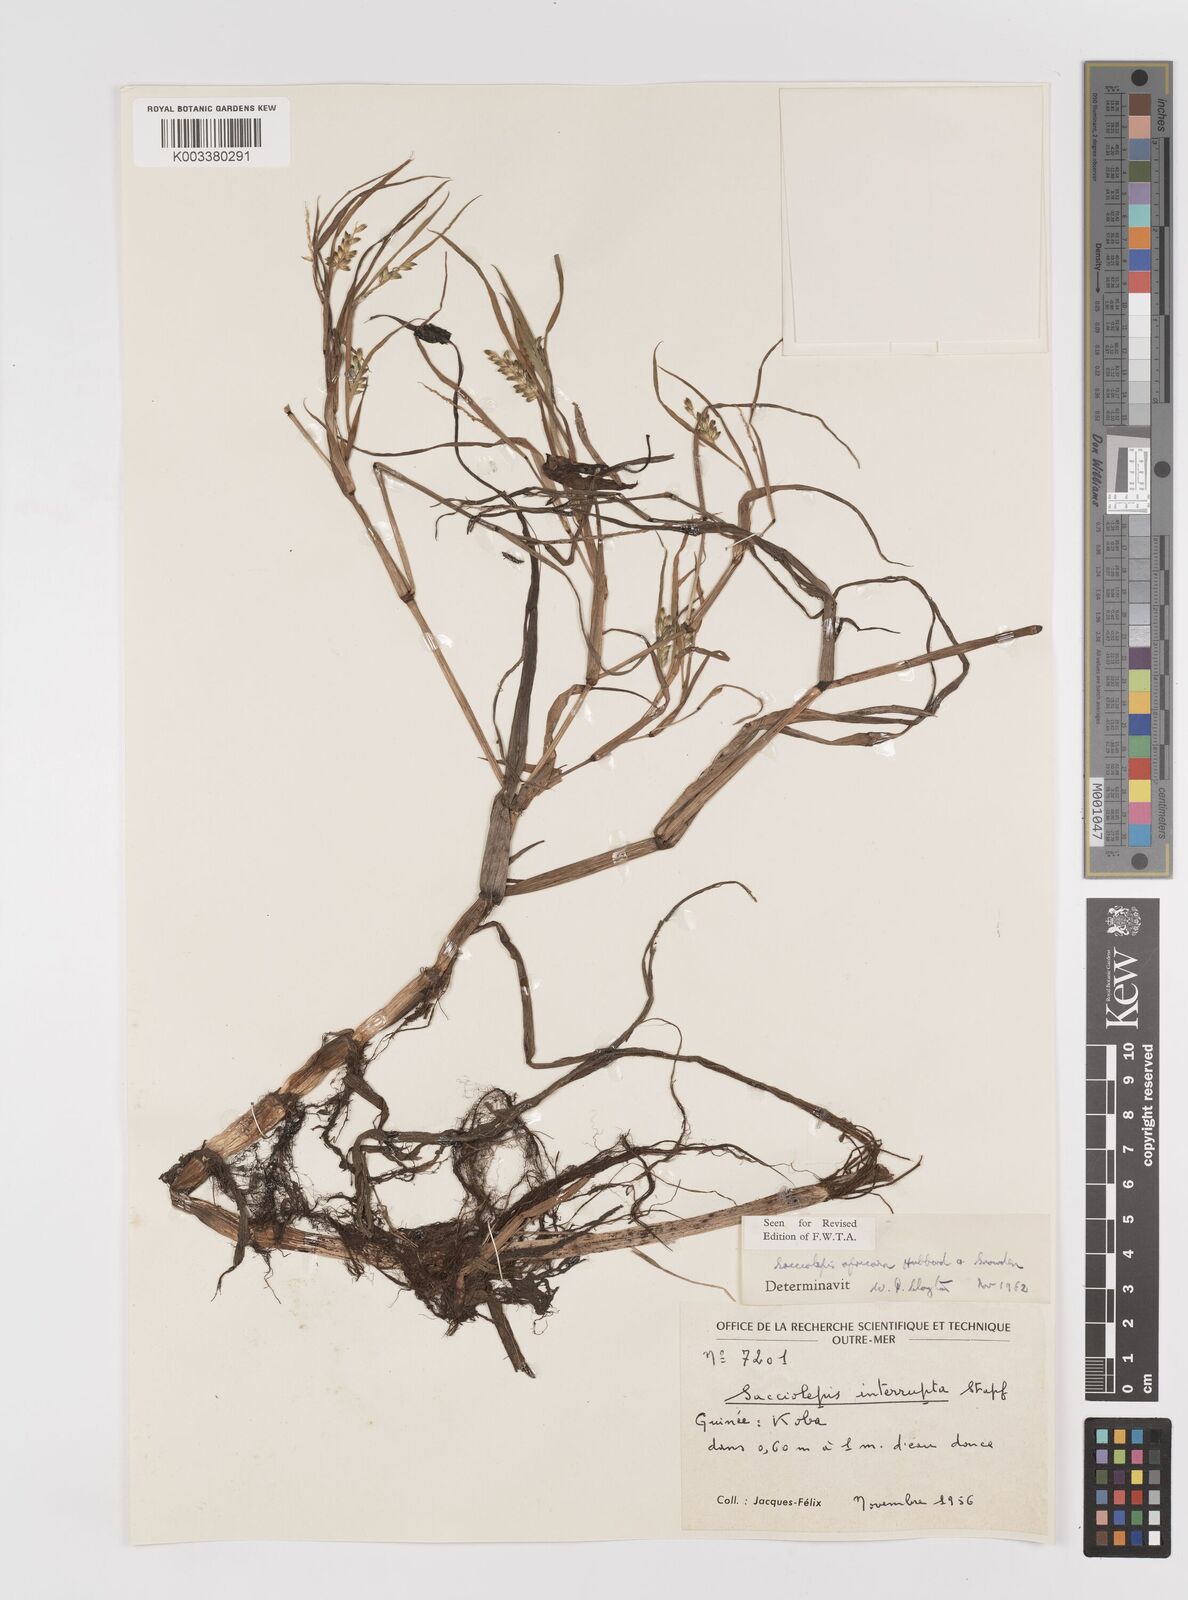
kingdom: Plantae
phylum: Tracheophyta
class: Liliopsida
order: Poales
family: Poaceae
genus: Sacciolepis
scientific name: Sacciolepis africana
